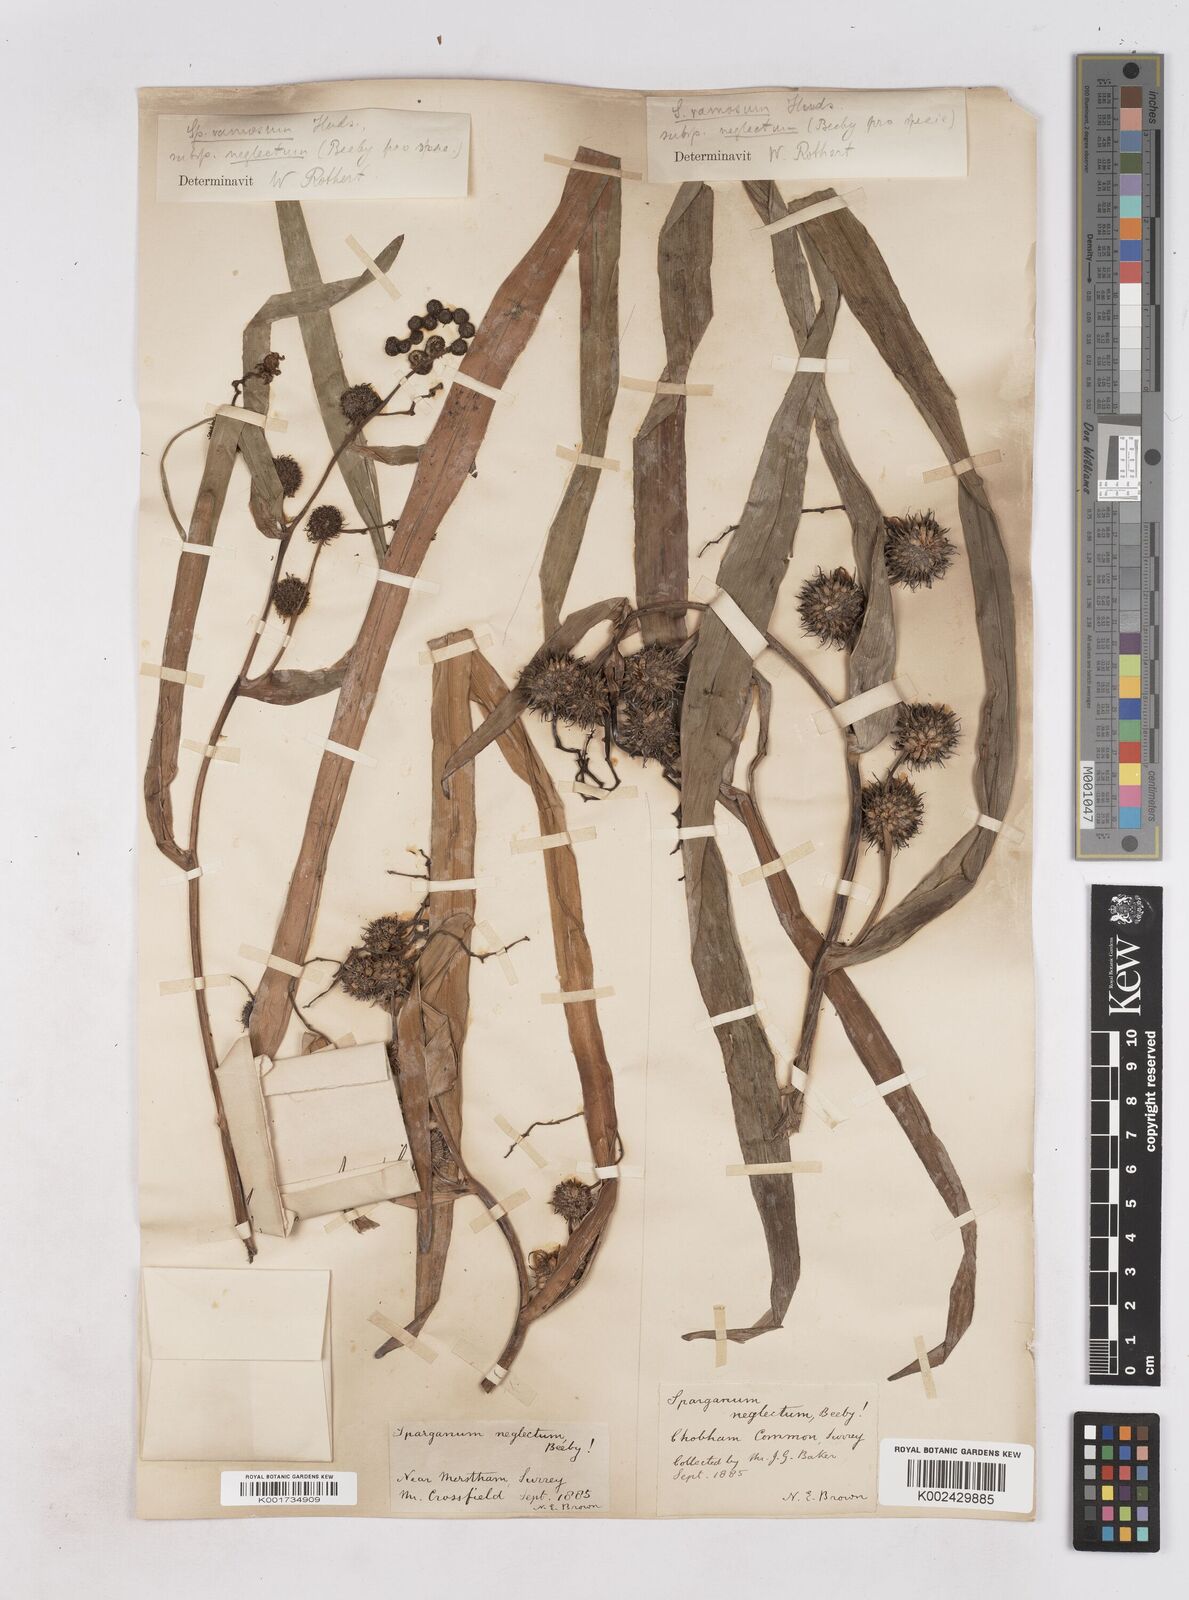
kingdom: Plantae
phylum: Tracheophyta
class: Liliopsida
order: Poales
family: Typhaceae
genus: Sparganium
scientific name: Sparganium erectum
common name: Branched bur-reed
